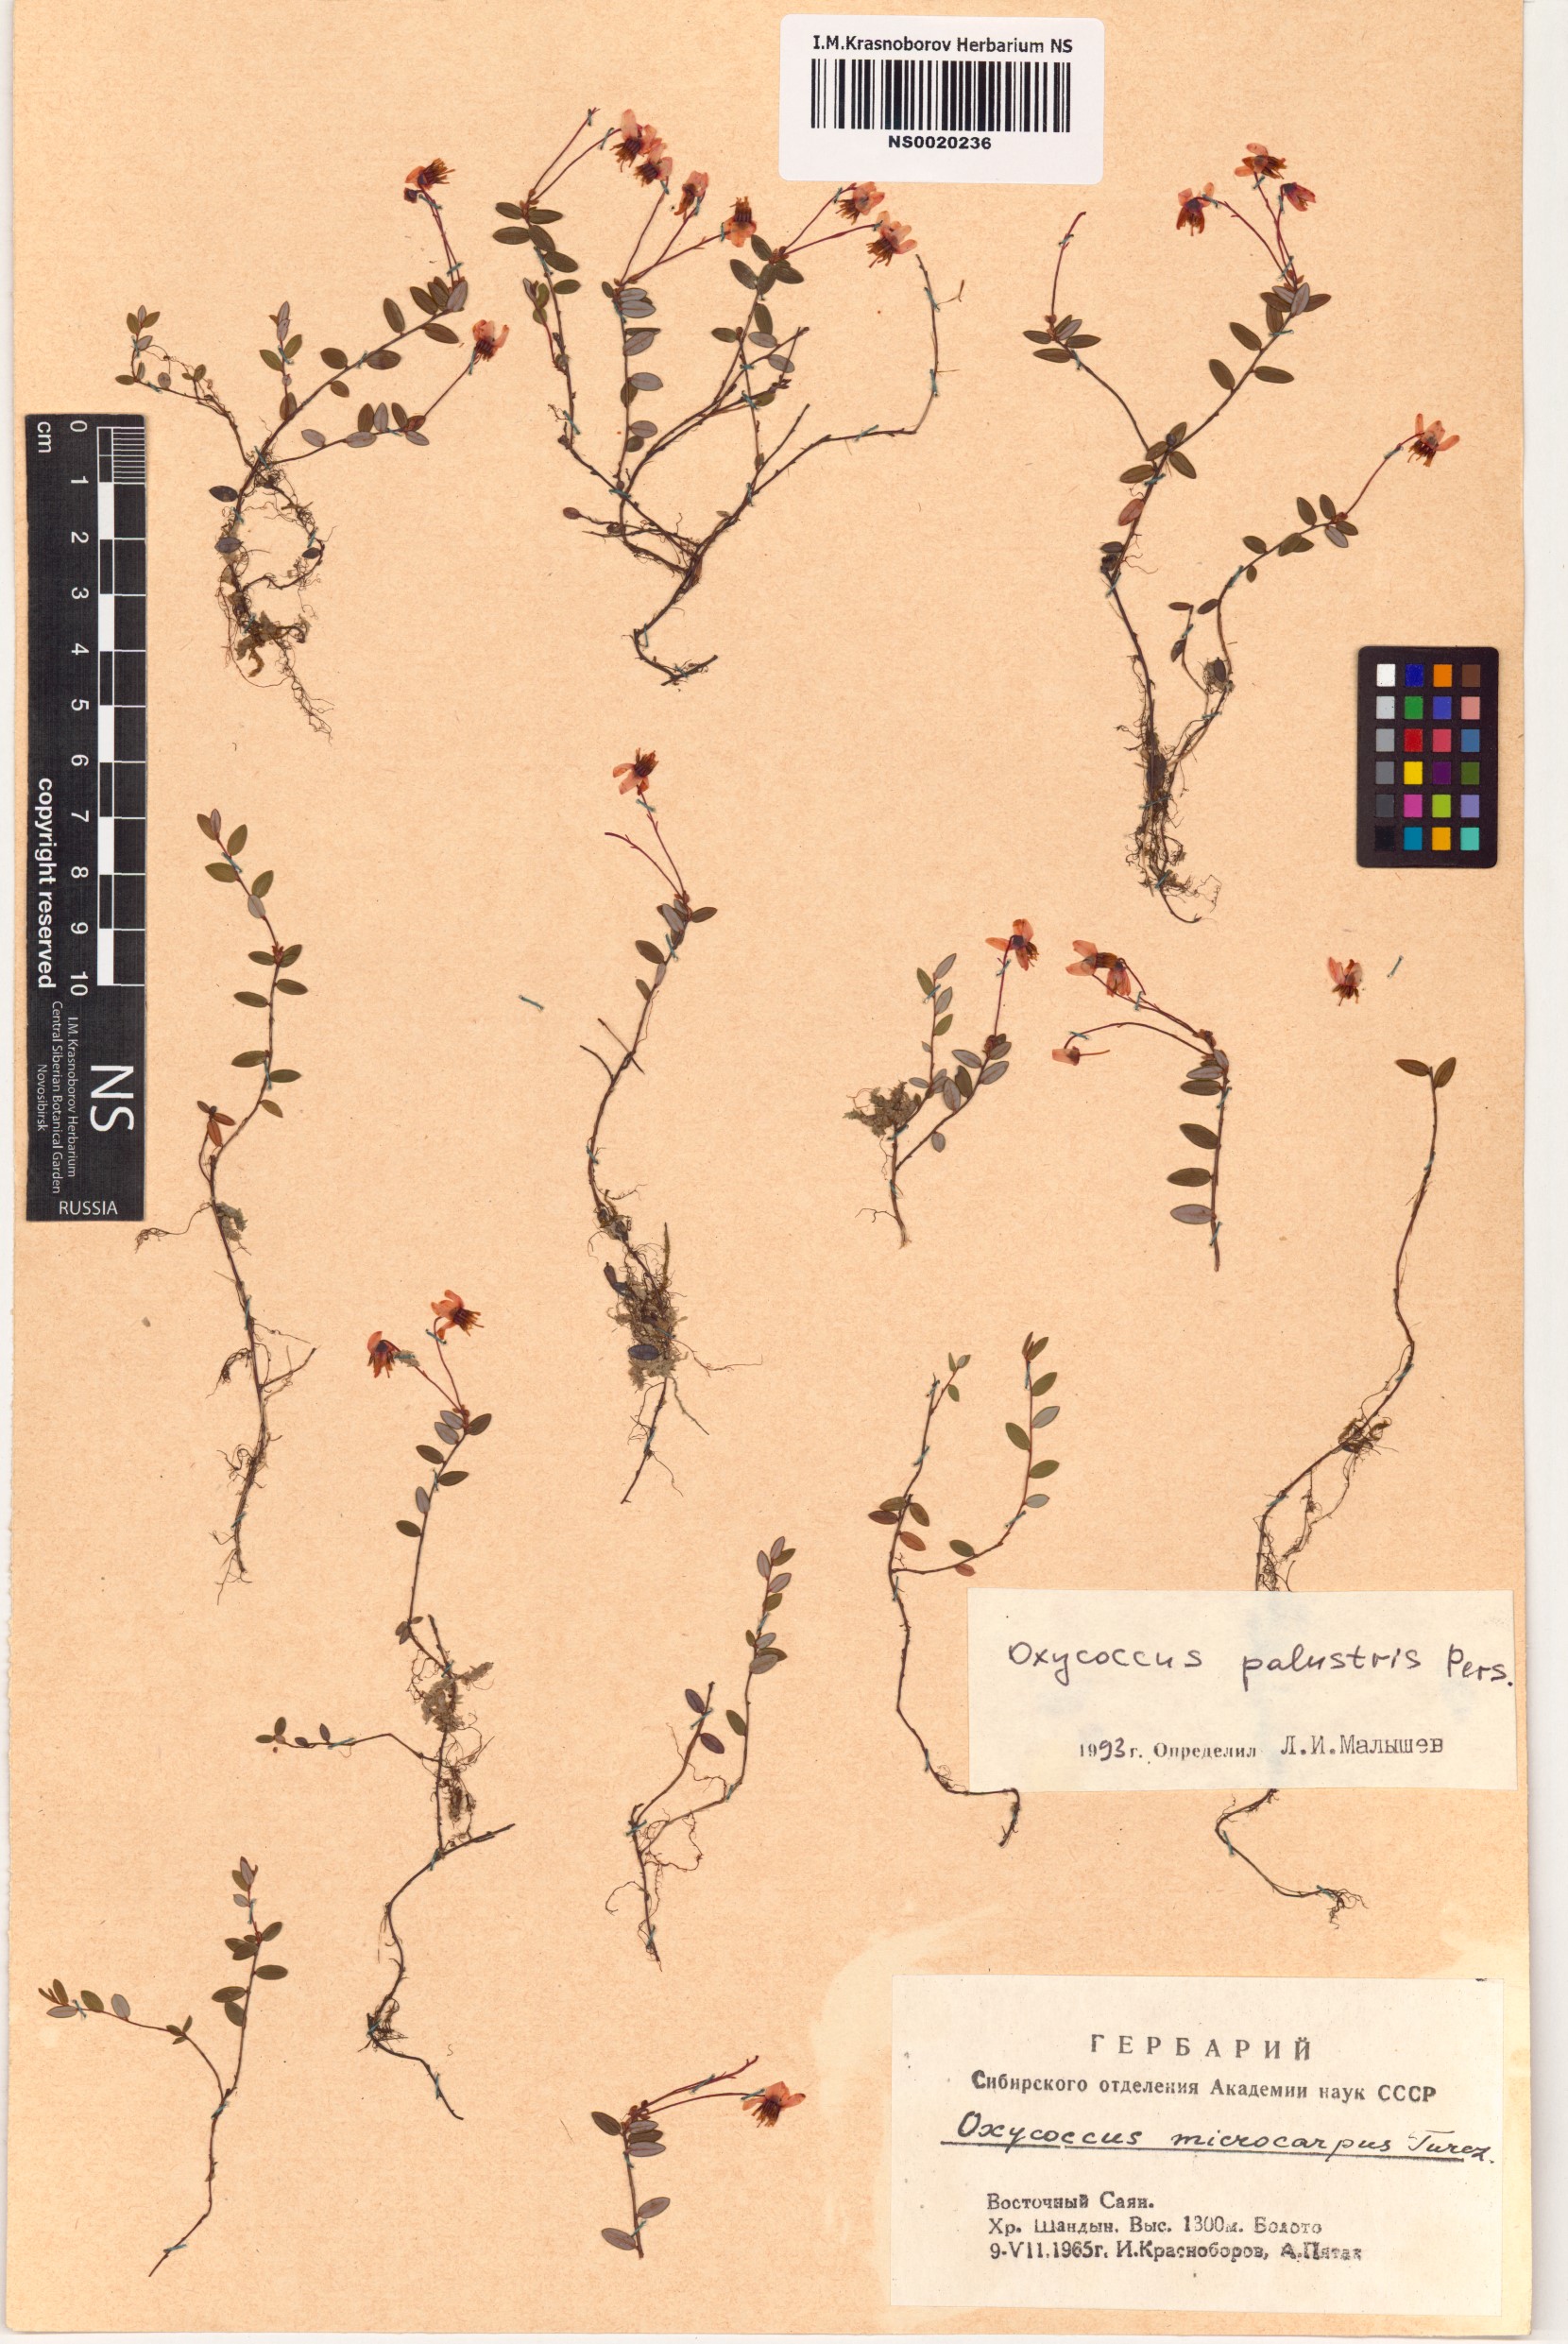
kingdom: Plantae
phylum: Tracheophyta
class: Magnoliopsida
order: Ericales
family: Ericaceae
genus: Vaccinium
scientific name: Vaccinium oxycoccos
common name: Cranberry
